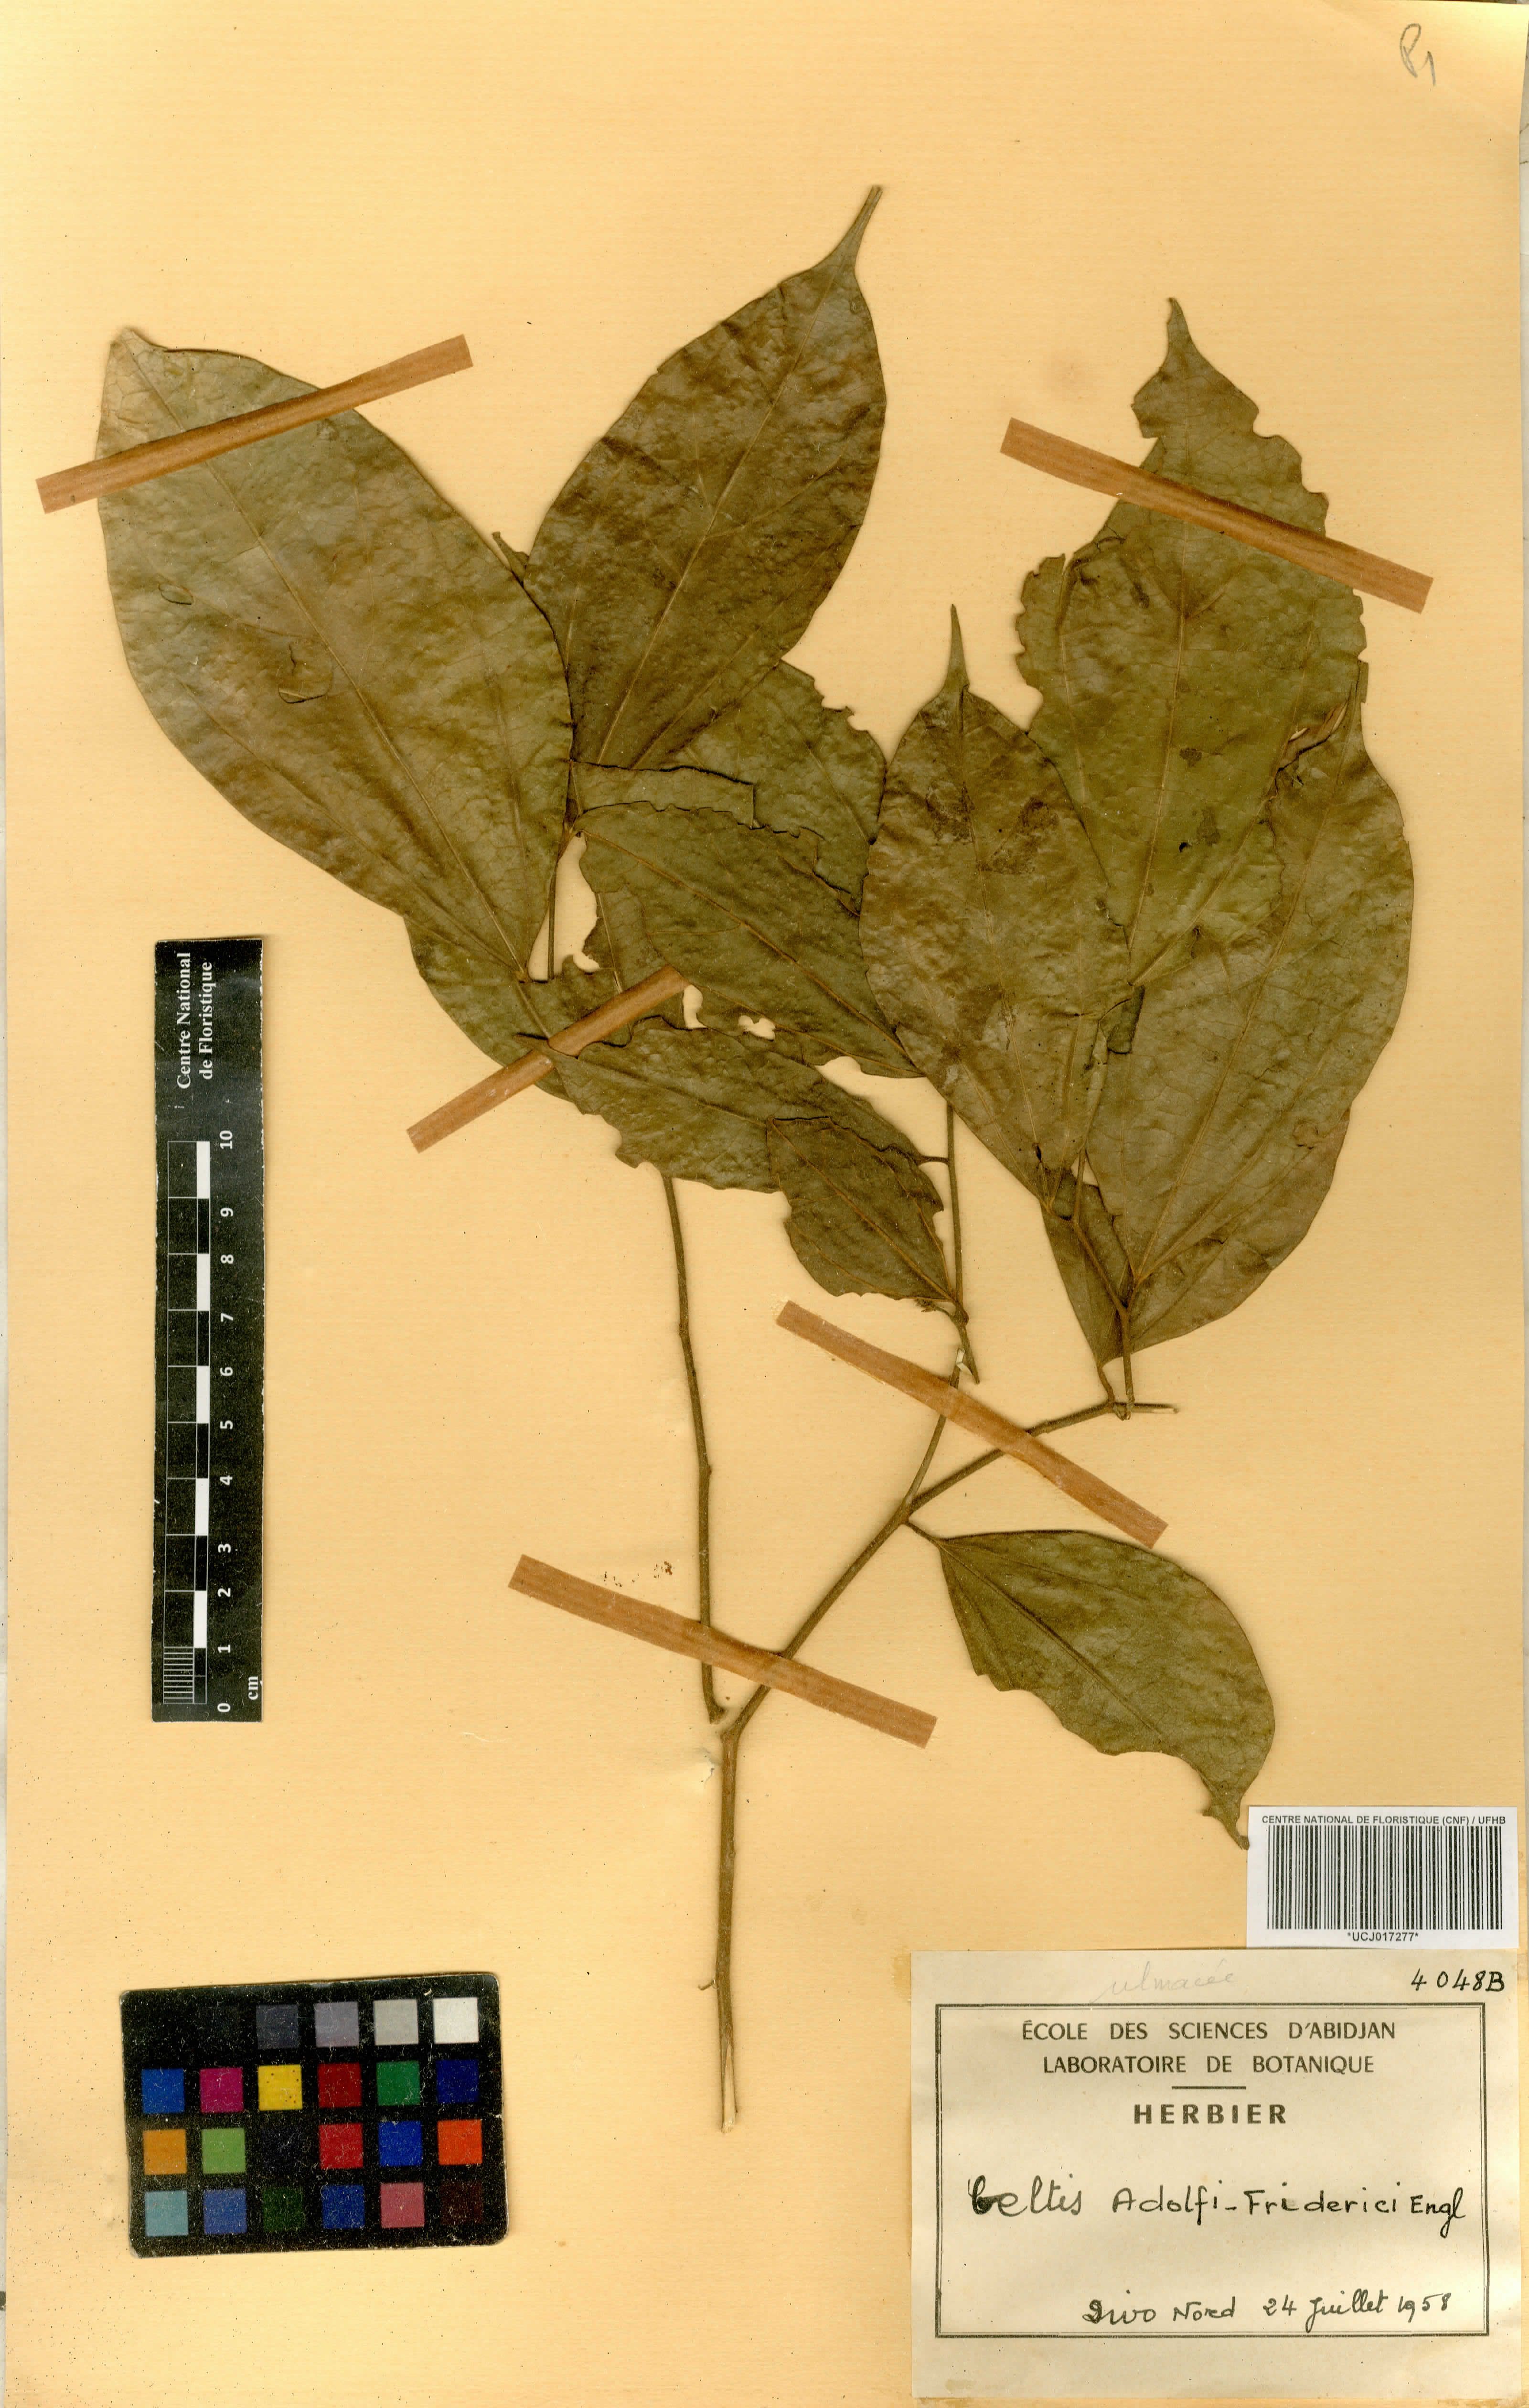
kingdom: Plantae
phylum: Tracheophyta
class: Magnoliopsida
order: Rosales
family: Cannabaceae
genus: Celtis
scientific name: Celtis adolfi-friderici
